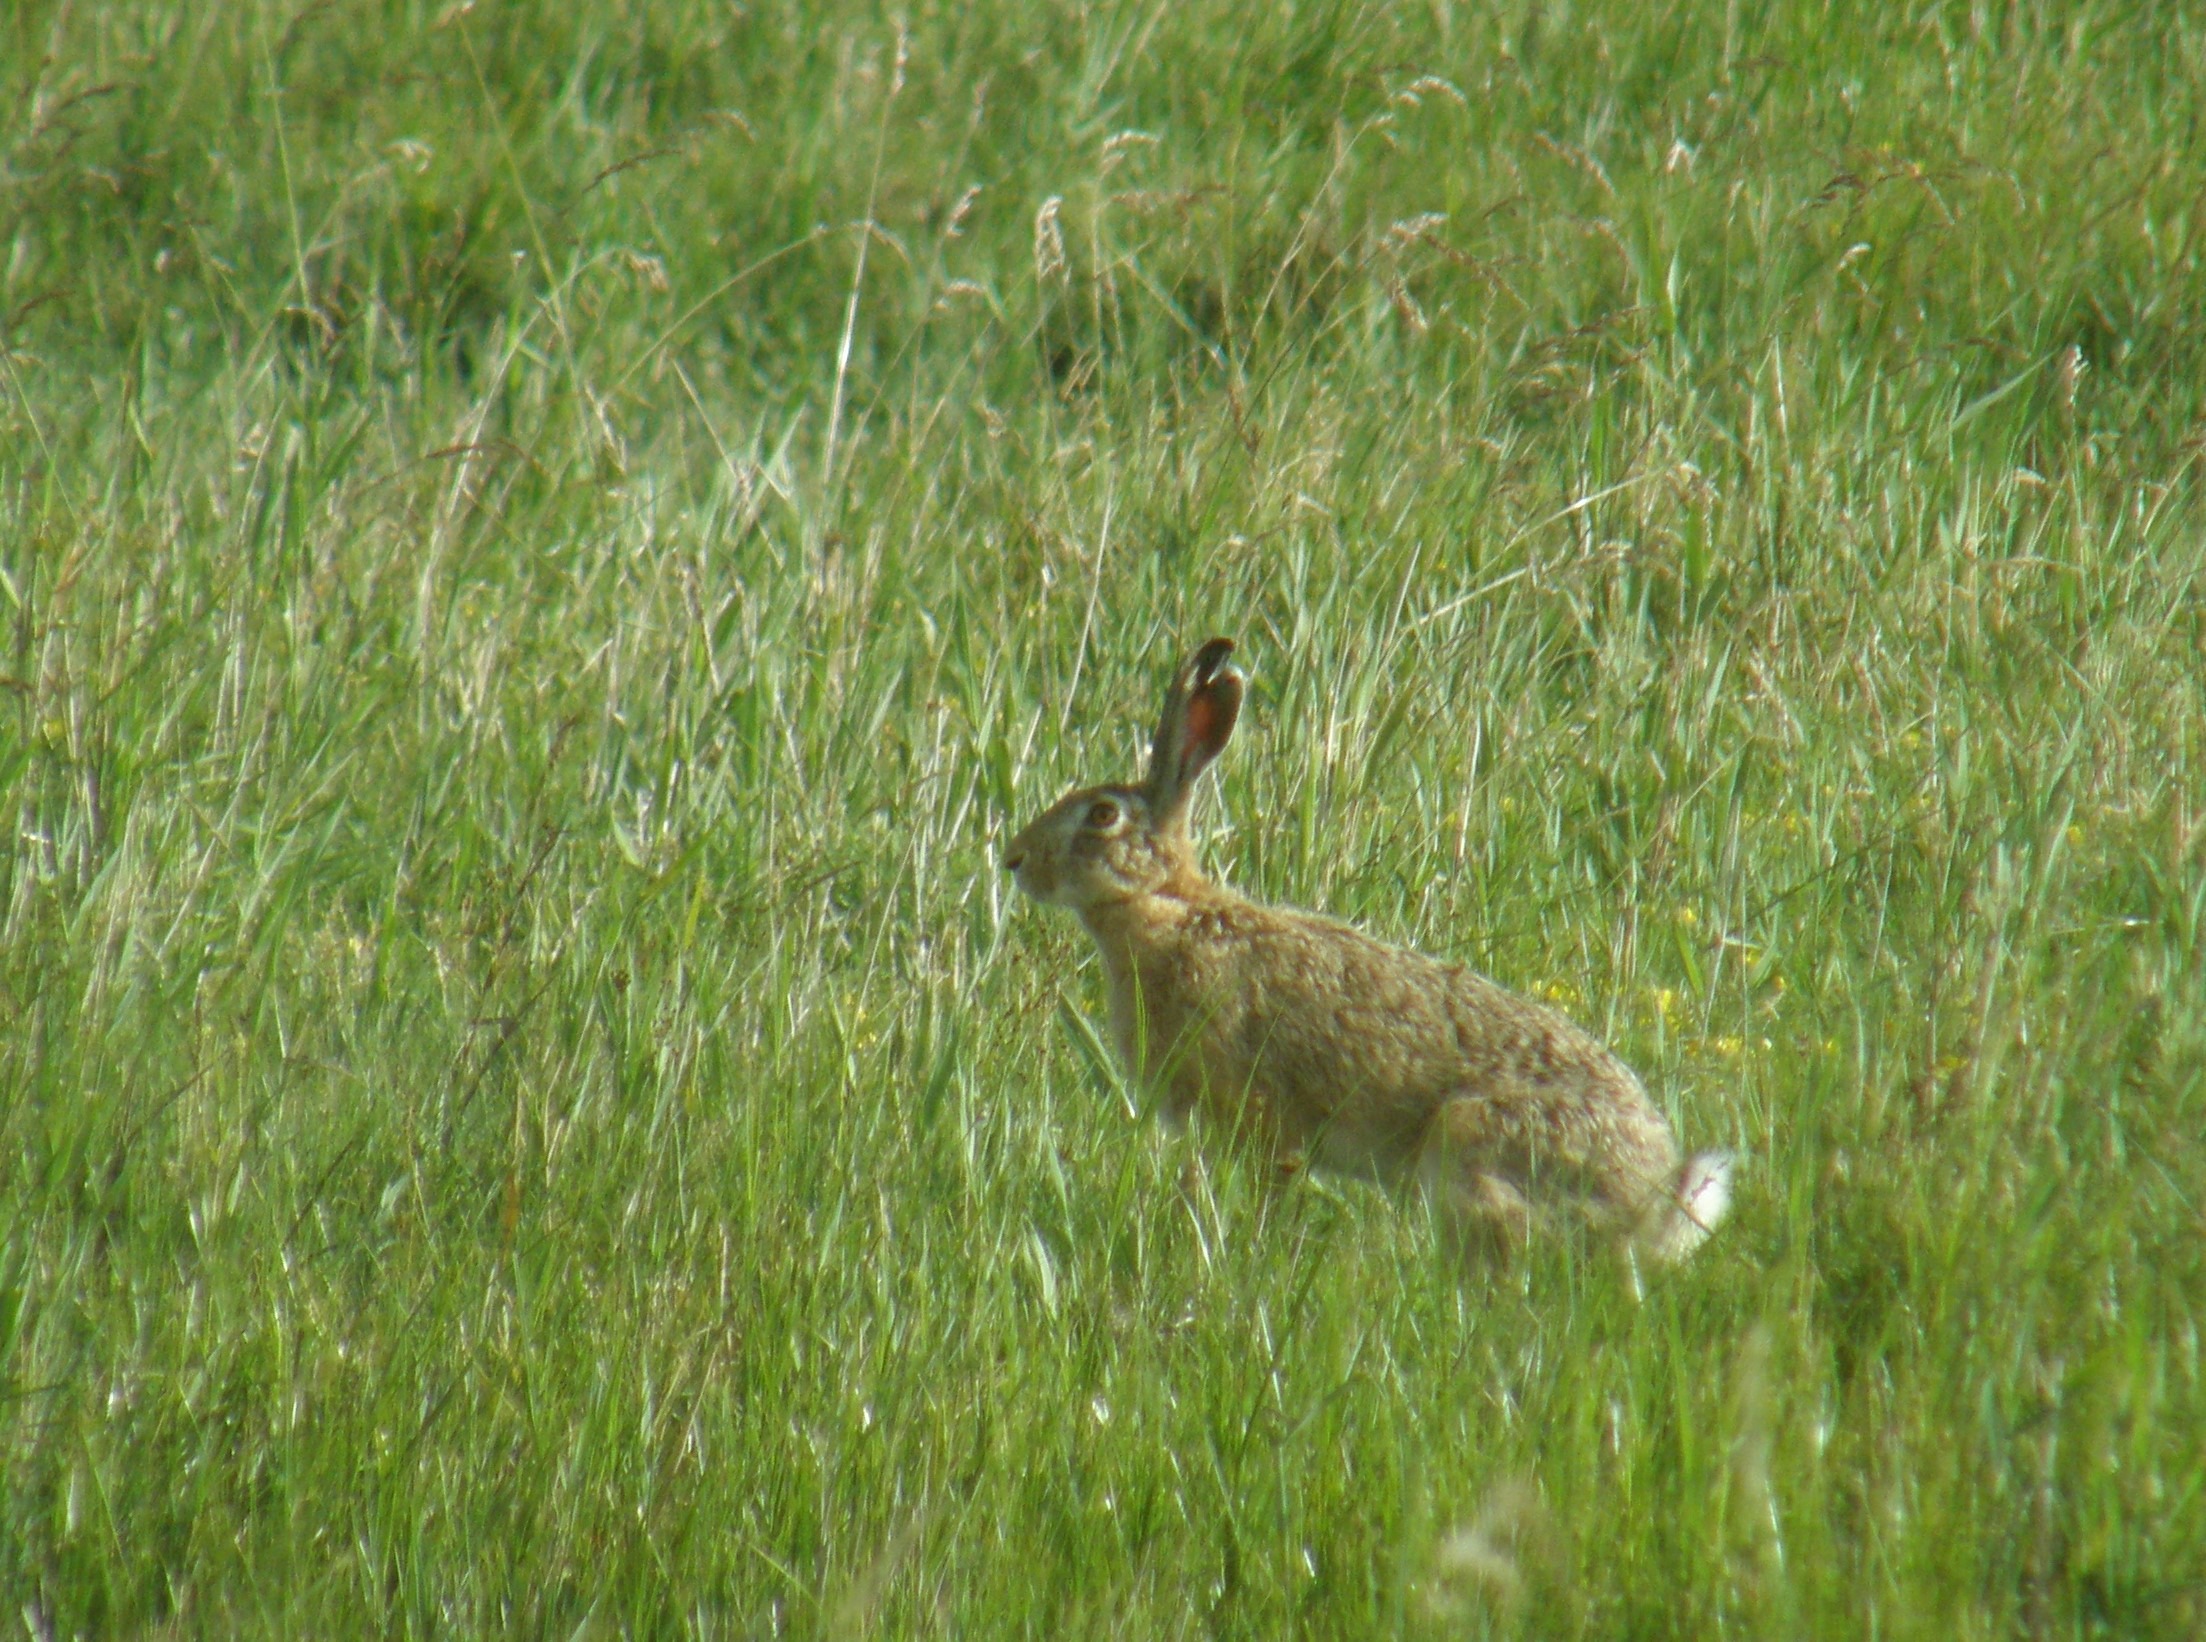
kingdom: Animalia
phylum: Chordata
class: Mammalia
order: Lagomorpha
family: Leporidae
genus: Lepus
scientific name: Lepus europaeus
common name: Hare
